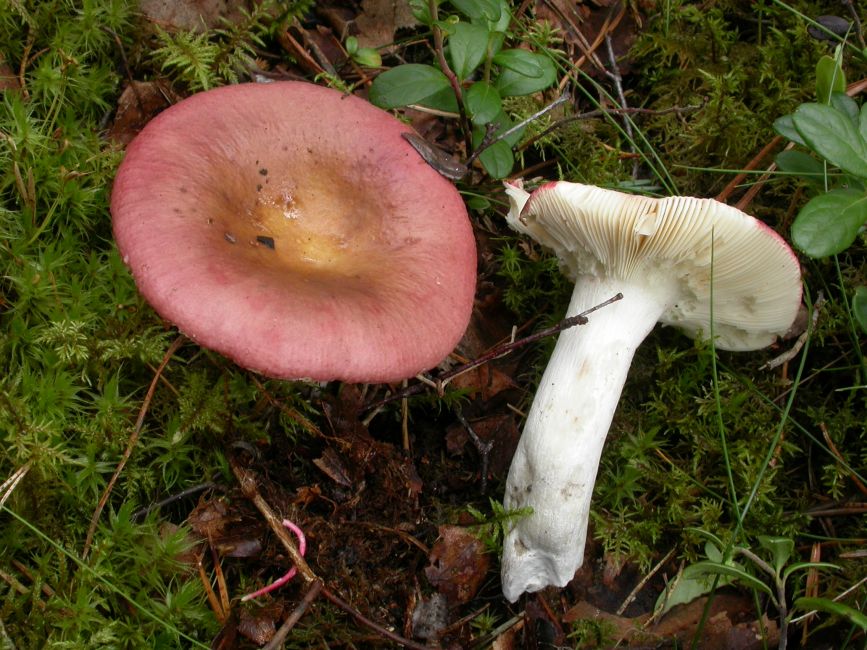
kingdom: Fungi
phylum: Basidiomycota
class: Agaricomycetes
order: Russulales
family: Russulaceae
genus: Russula
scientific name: Russula vinosa
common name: vinrød skørhat
